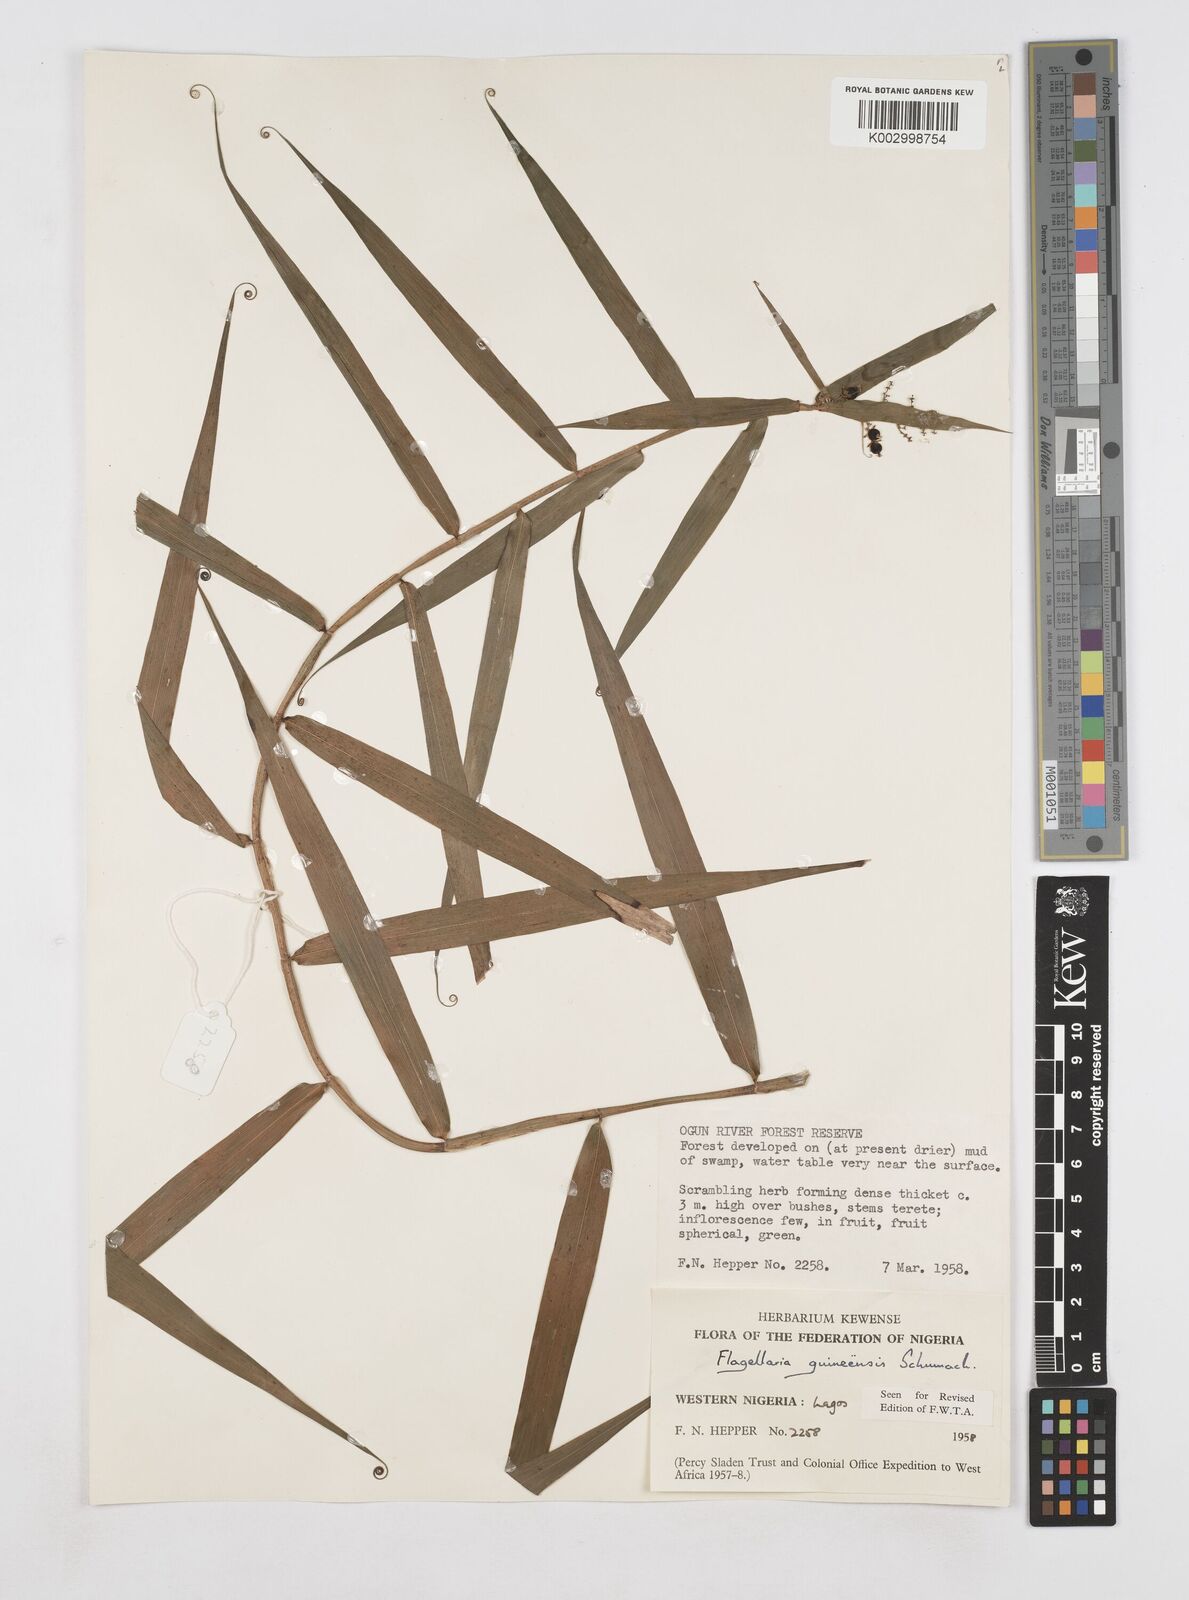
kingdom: Plantae
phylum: Tracheophyta
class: Liliopsida
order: Poales
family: Flagellariaceae
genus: Flagellaria
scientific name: Flagellaria guineensis
